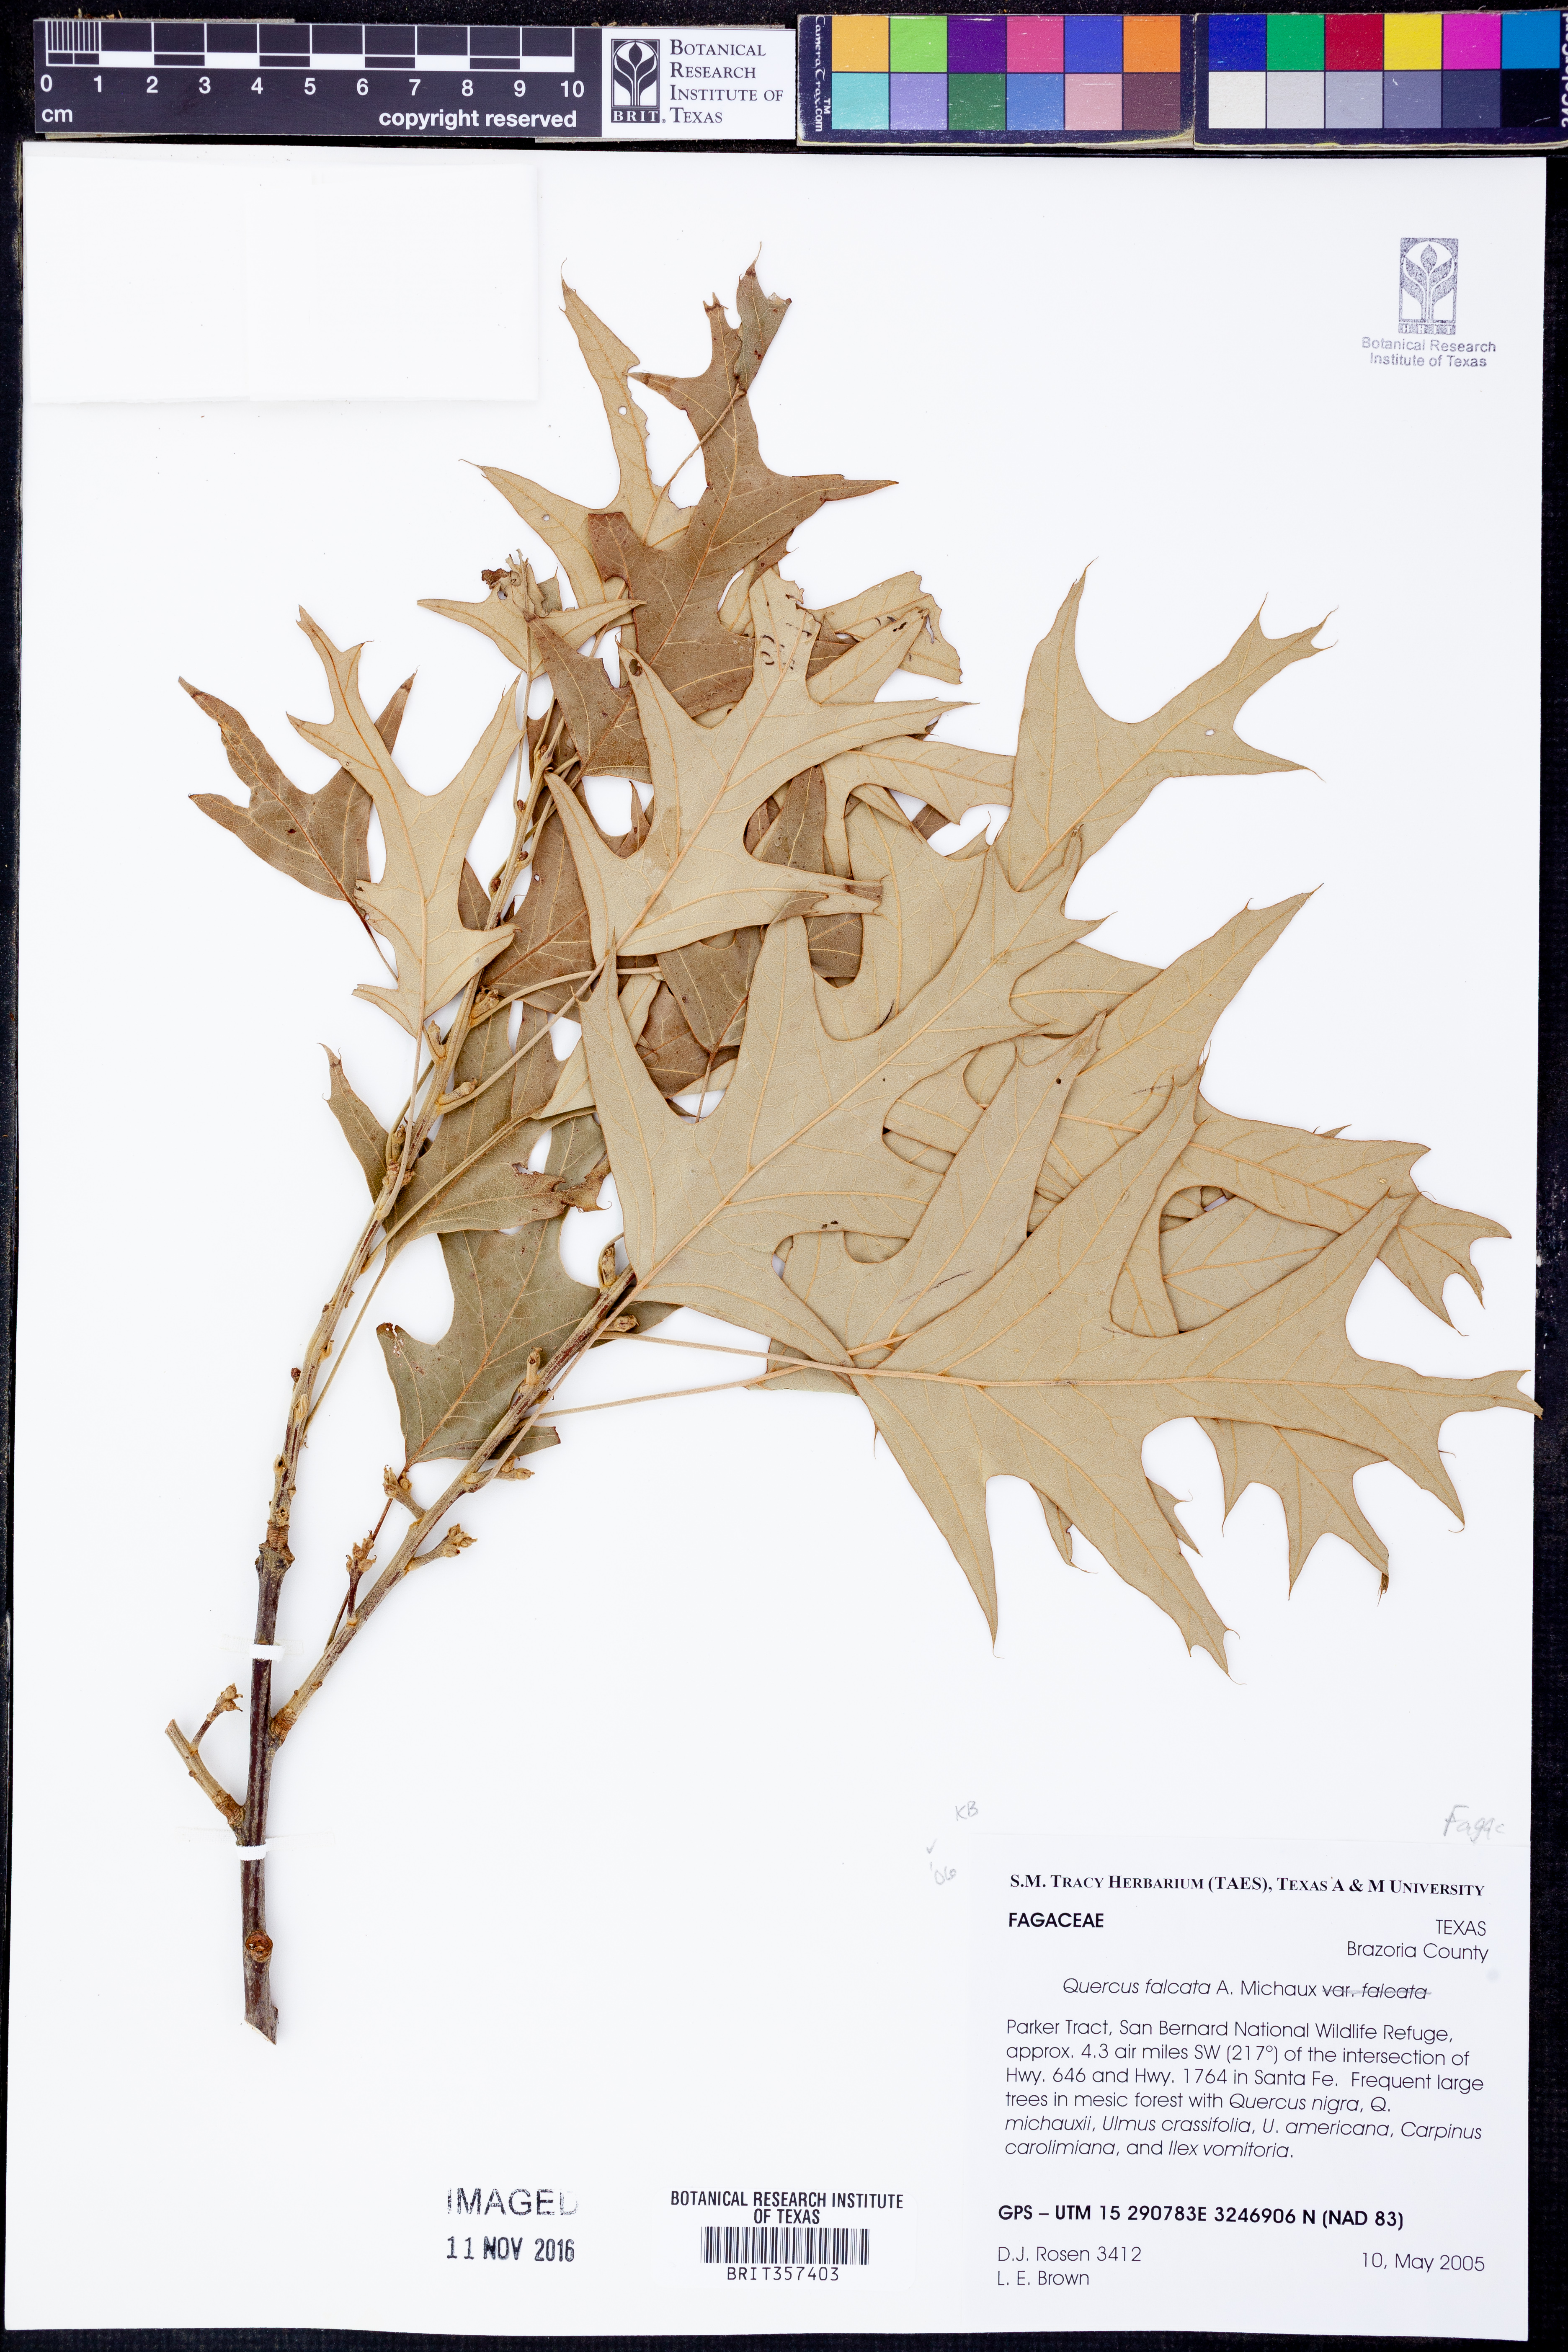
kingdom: Plantae
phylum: Tracheophyta
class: Magnoliopsida
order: Fagales
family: Fagaceae
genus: Quercus
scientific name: Quercus falcata
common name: Southern red oak
